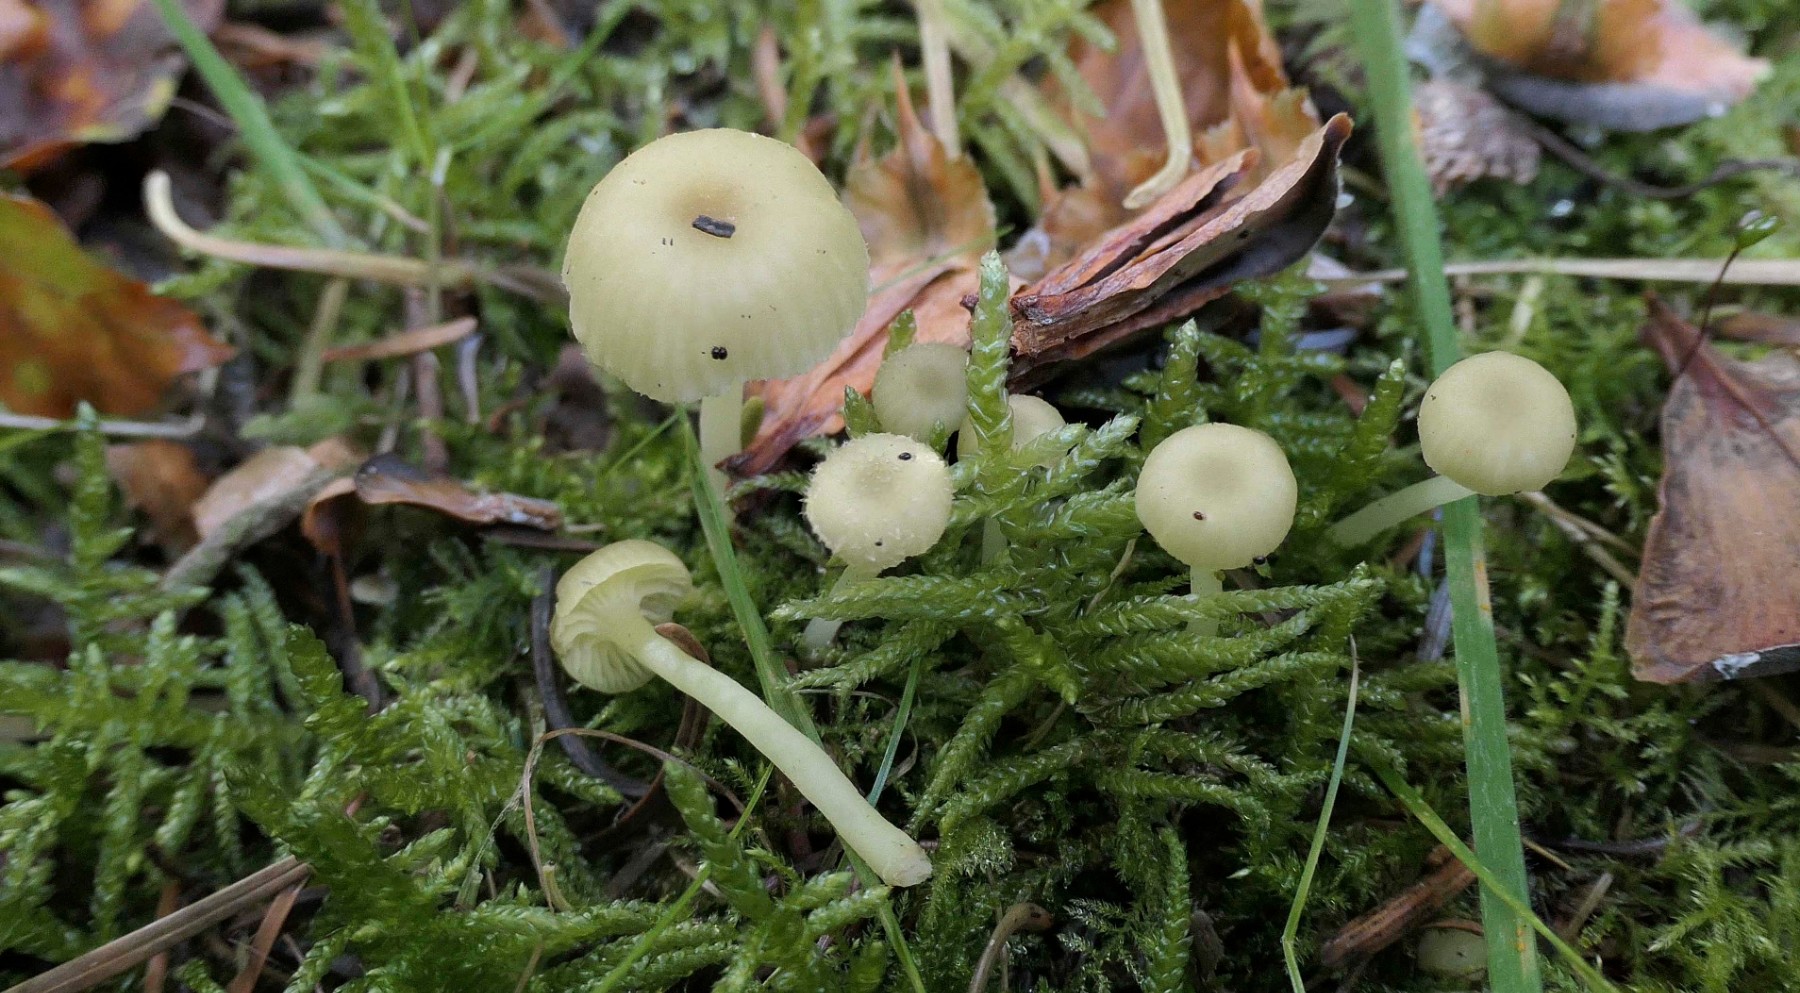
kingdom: Fungi
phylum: Basidiomycota
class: Agaricomycetes
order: Agaricales
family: Hygrophoraceae
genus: Chrysomphalina
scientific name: Chrysomphalina grossula
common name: stød-gyldenblad
